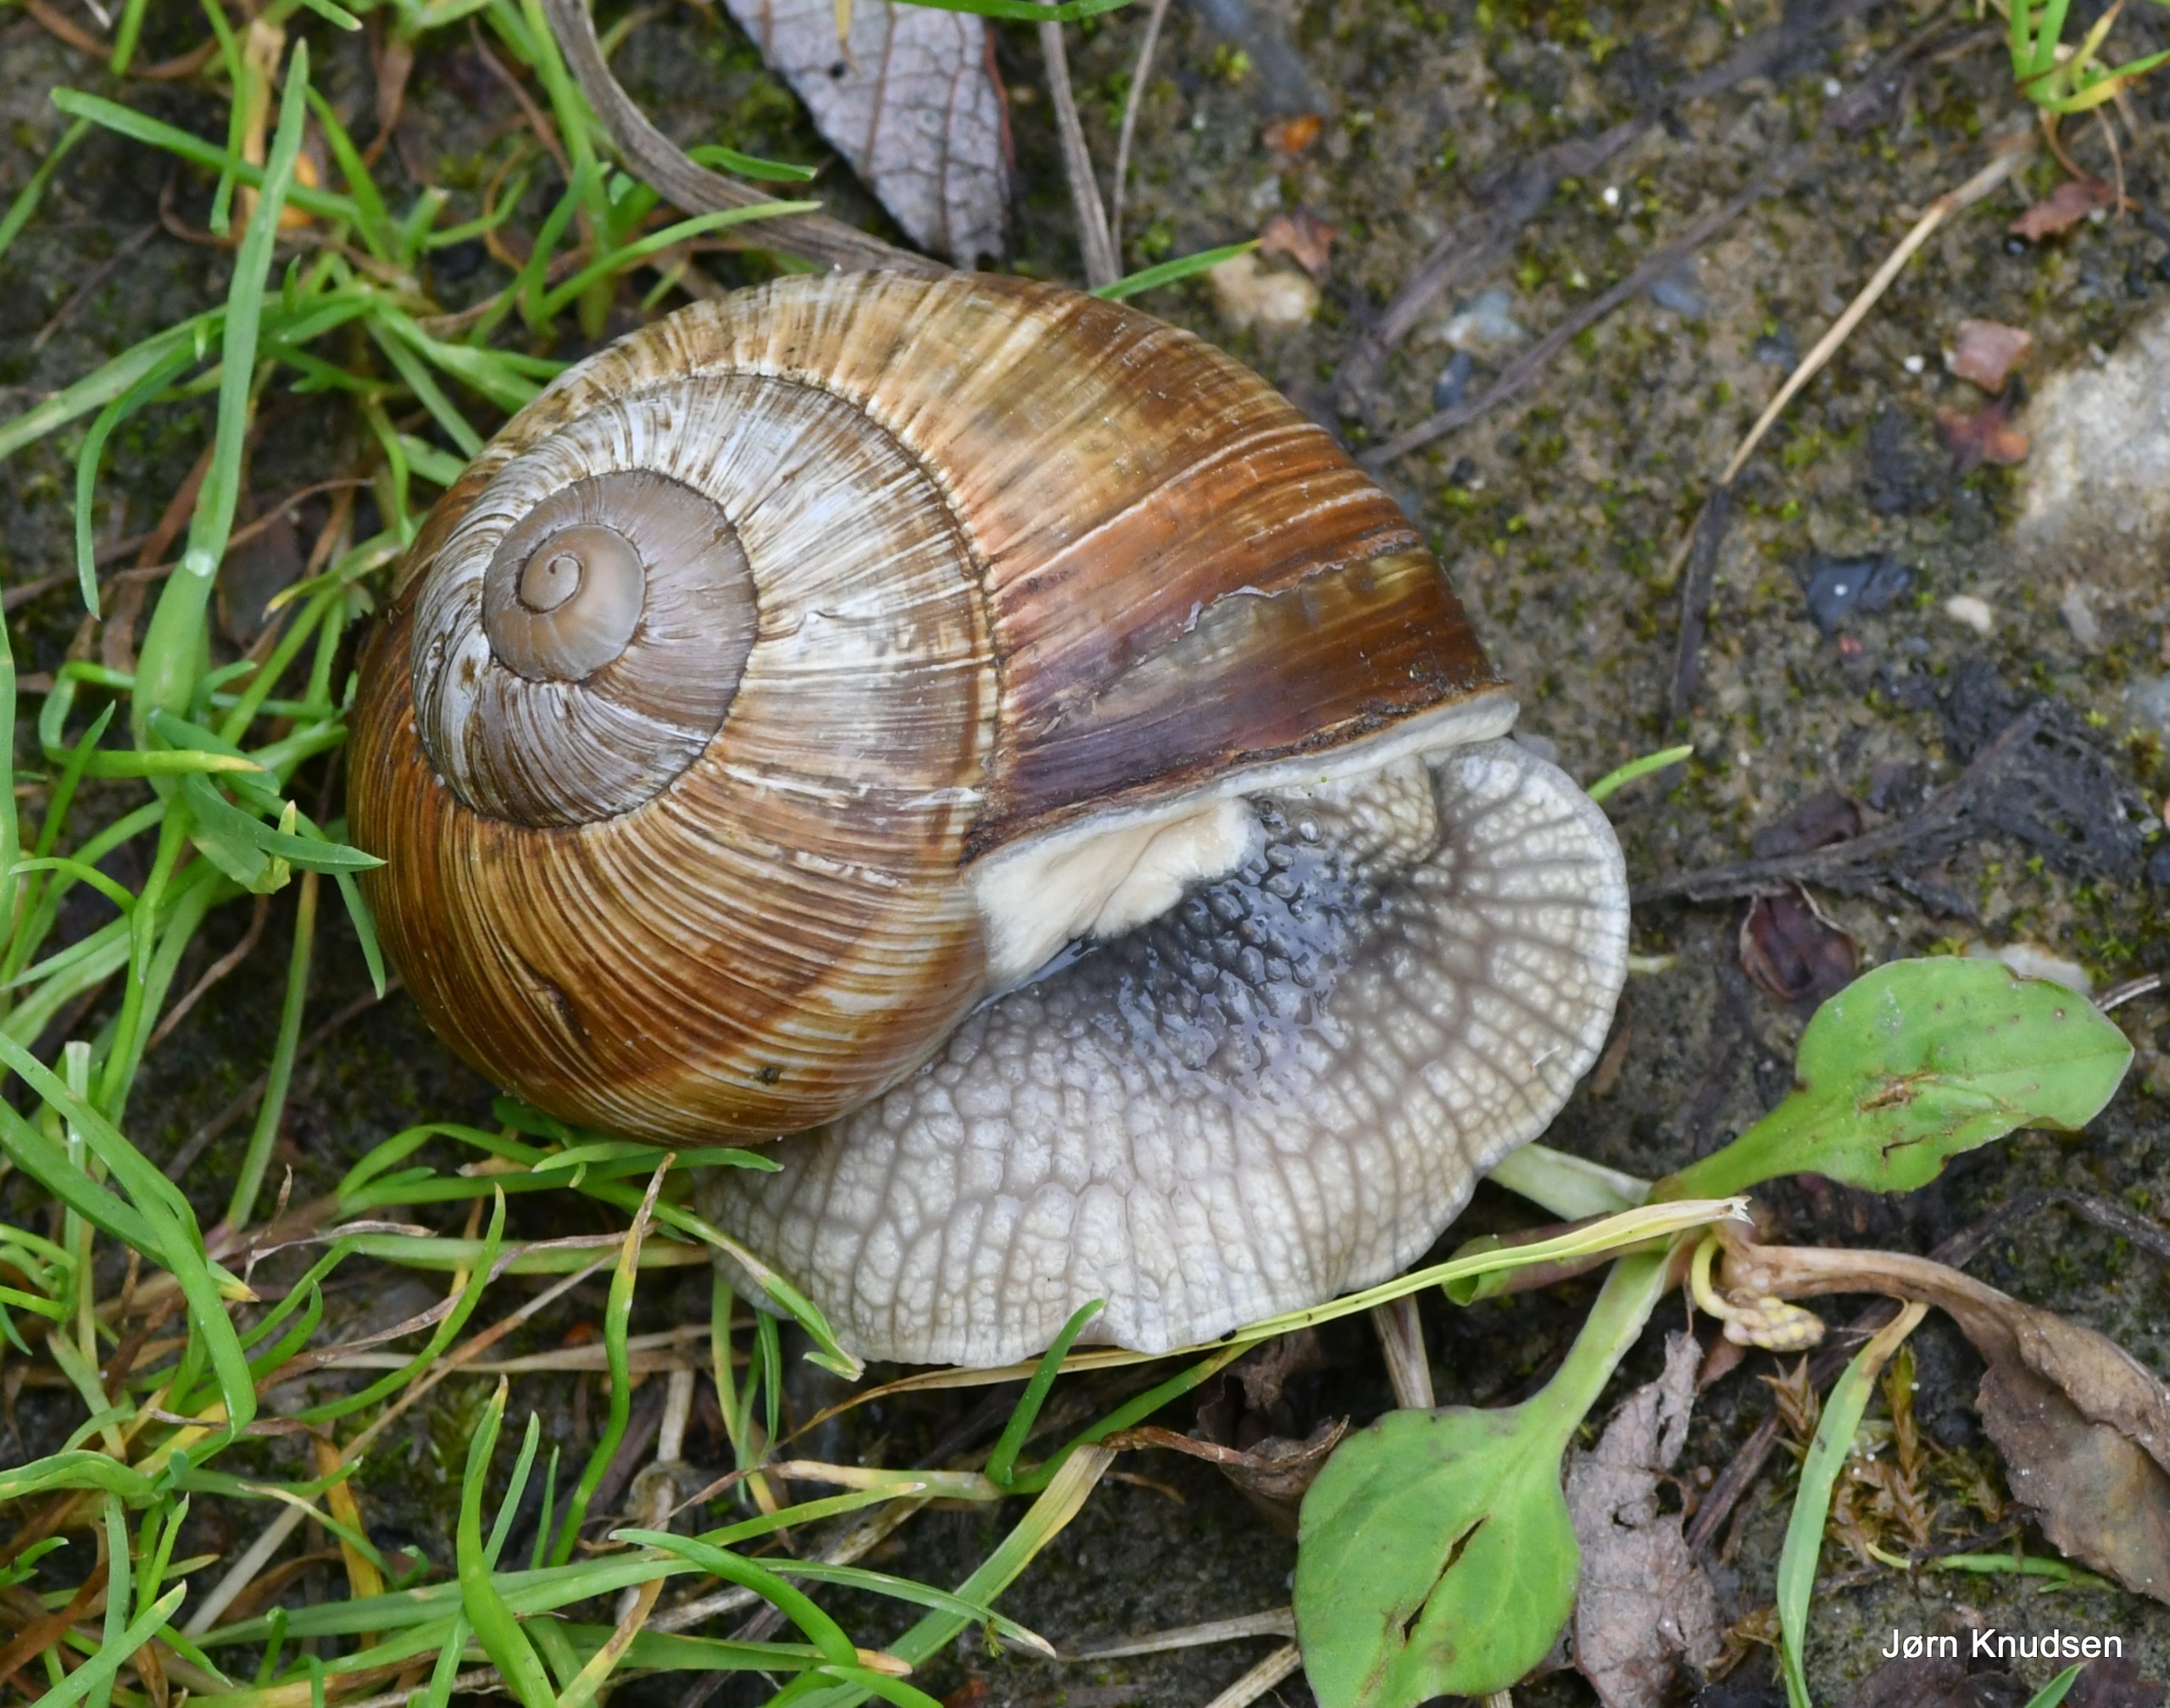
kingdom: Animalia
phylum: Mollusca
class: Gastropoda
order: Stylommatophora
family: Helicidae
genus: Helix
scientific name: Helix pomatia
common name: Vinbjergsnegl
